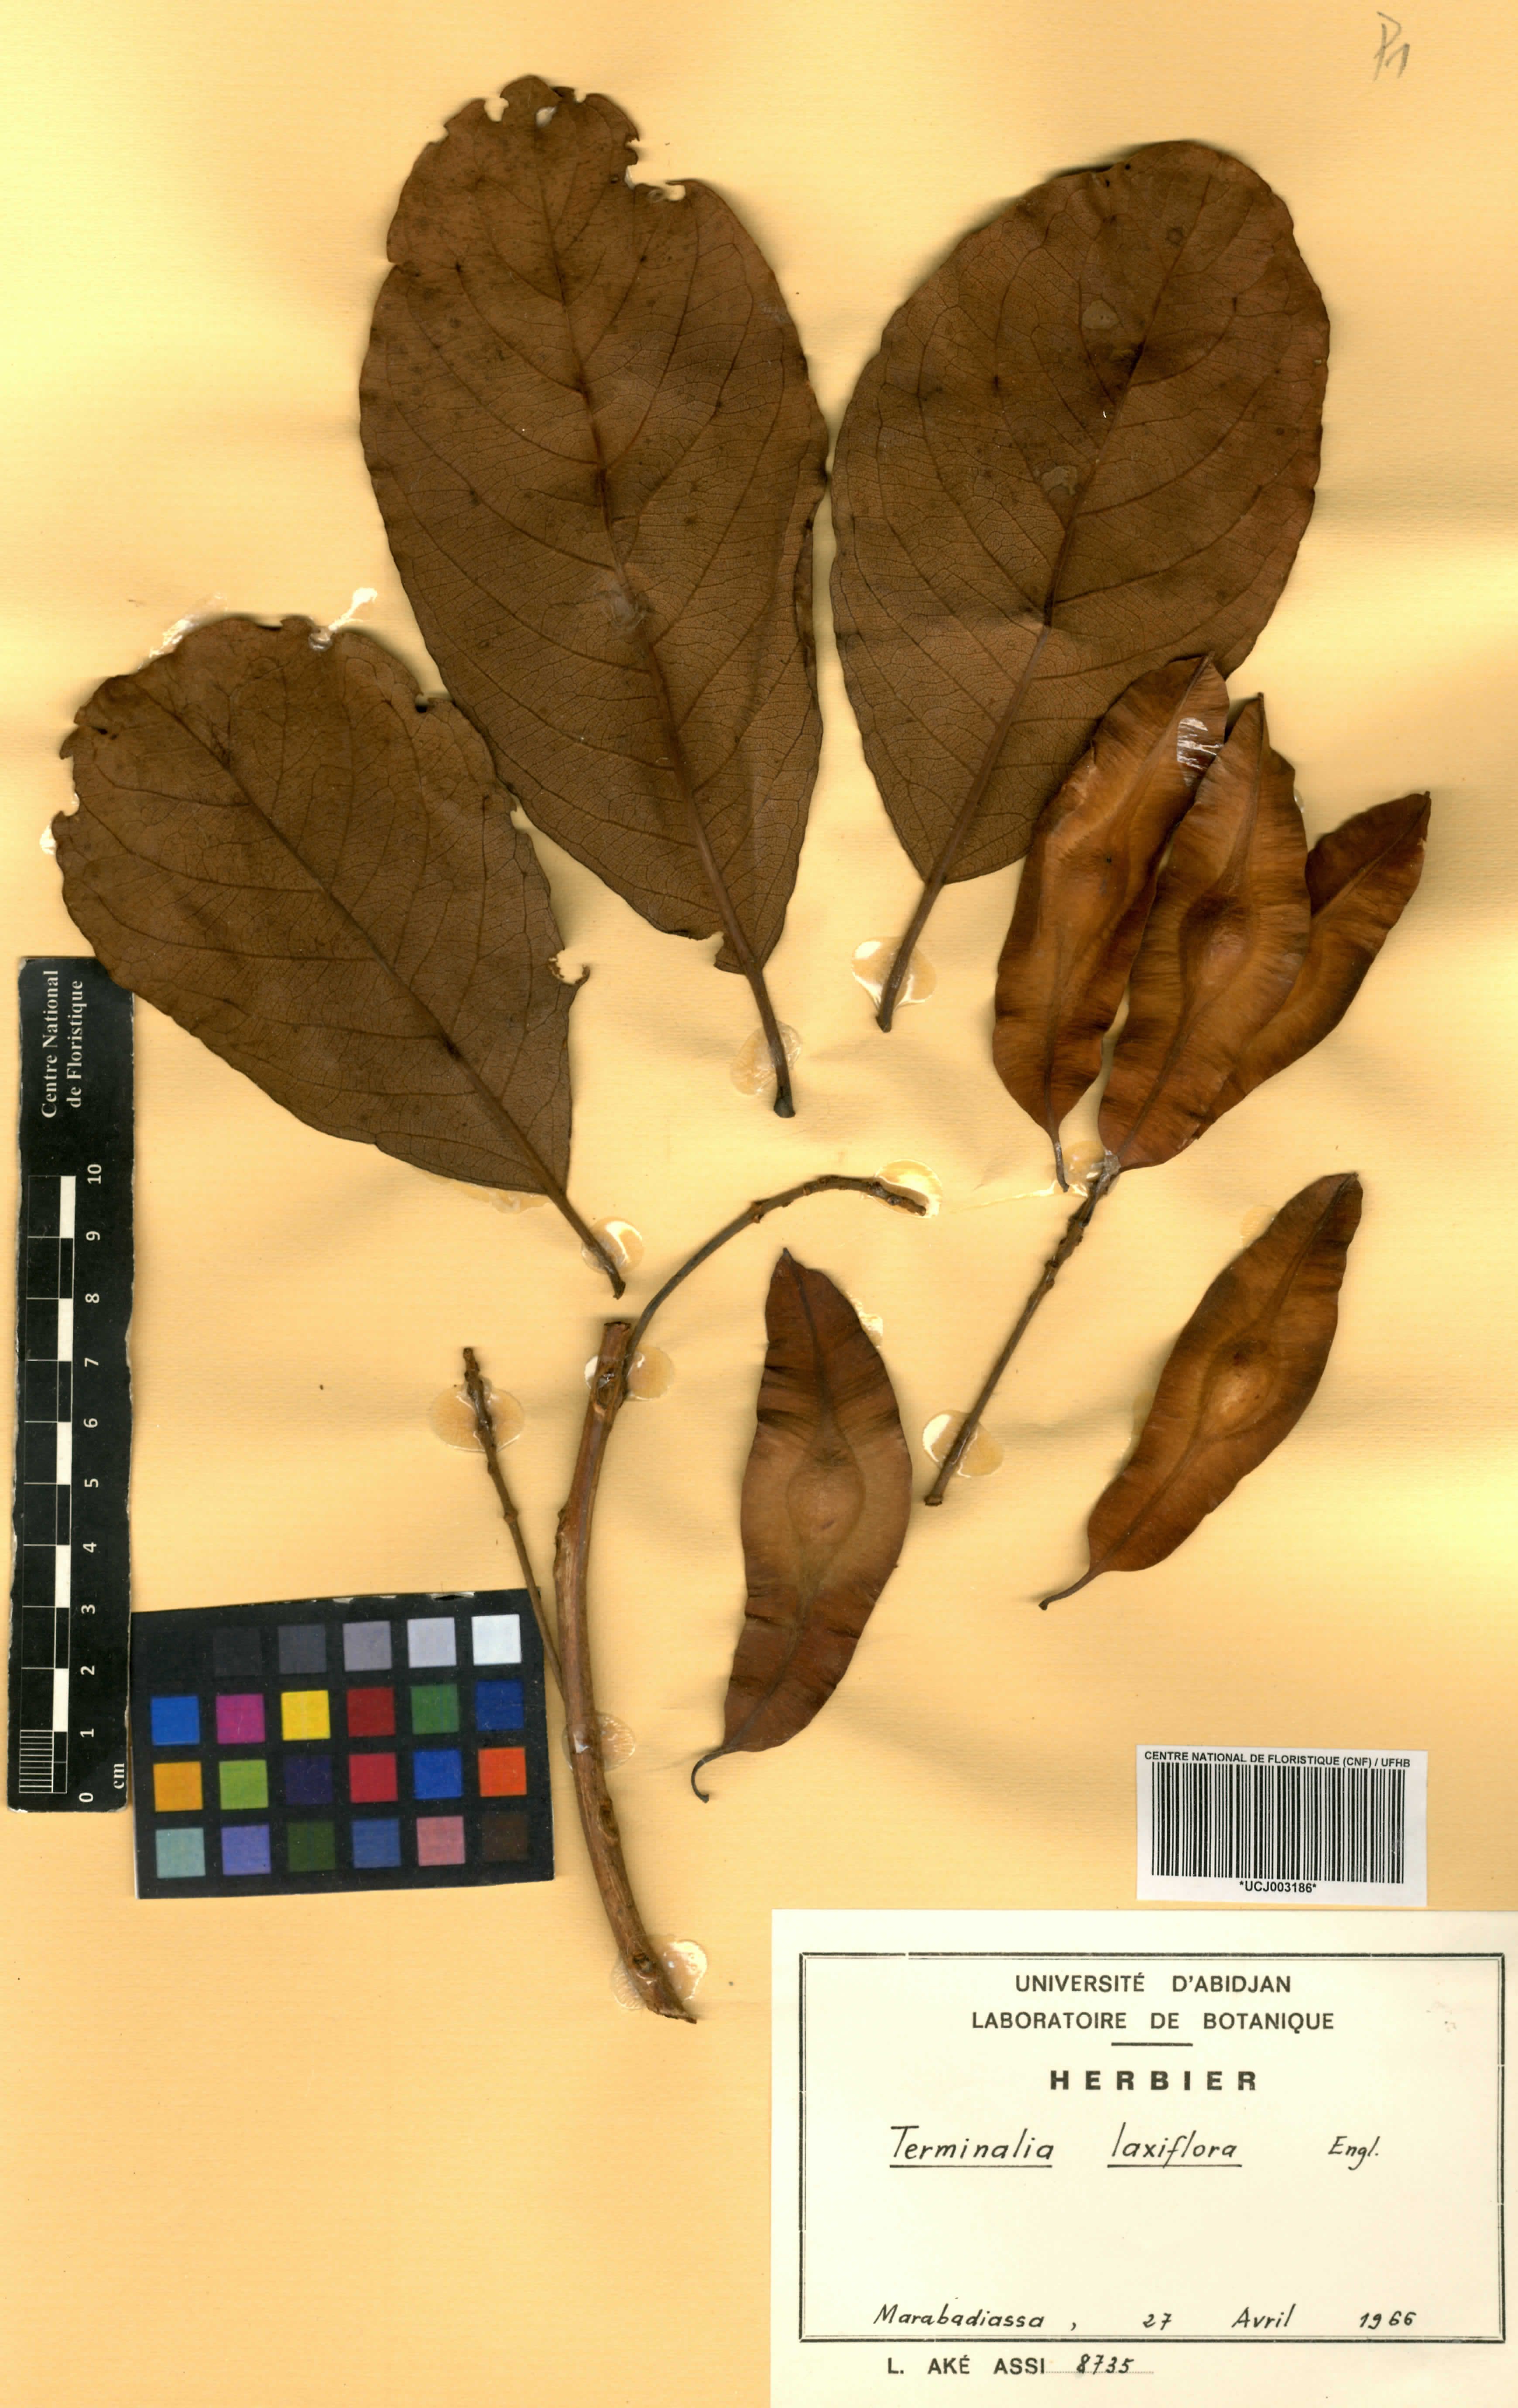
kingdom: Plantae
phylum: Tracheophyta
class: Magnoliopsida
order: Myrtales
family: Combretaceae
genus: Terminalia
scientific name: Terminalia laxiflora
